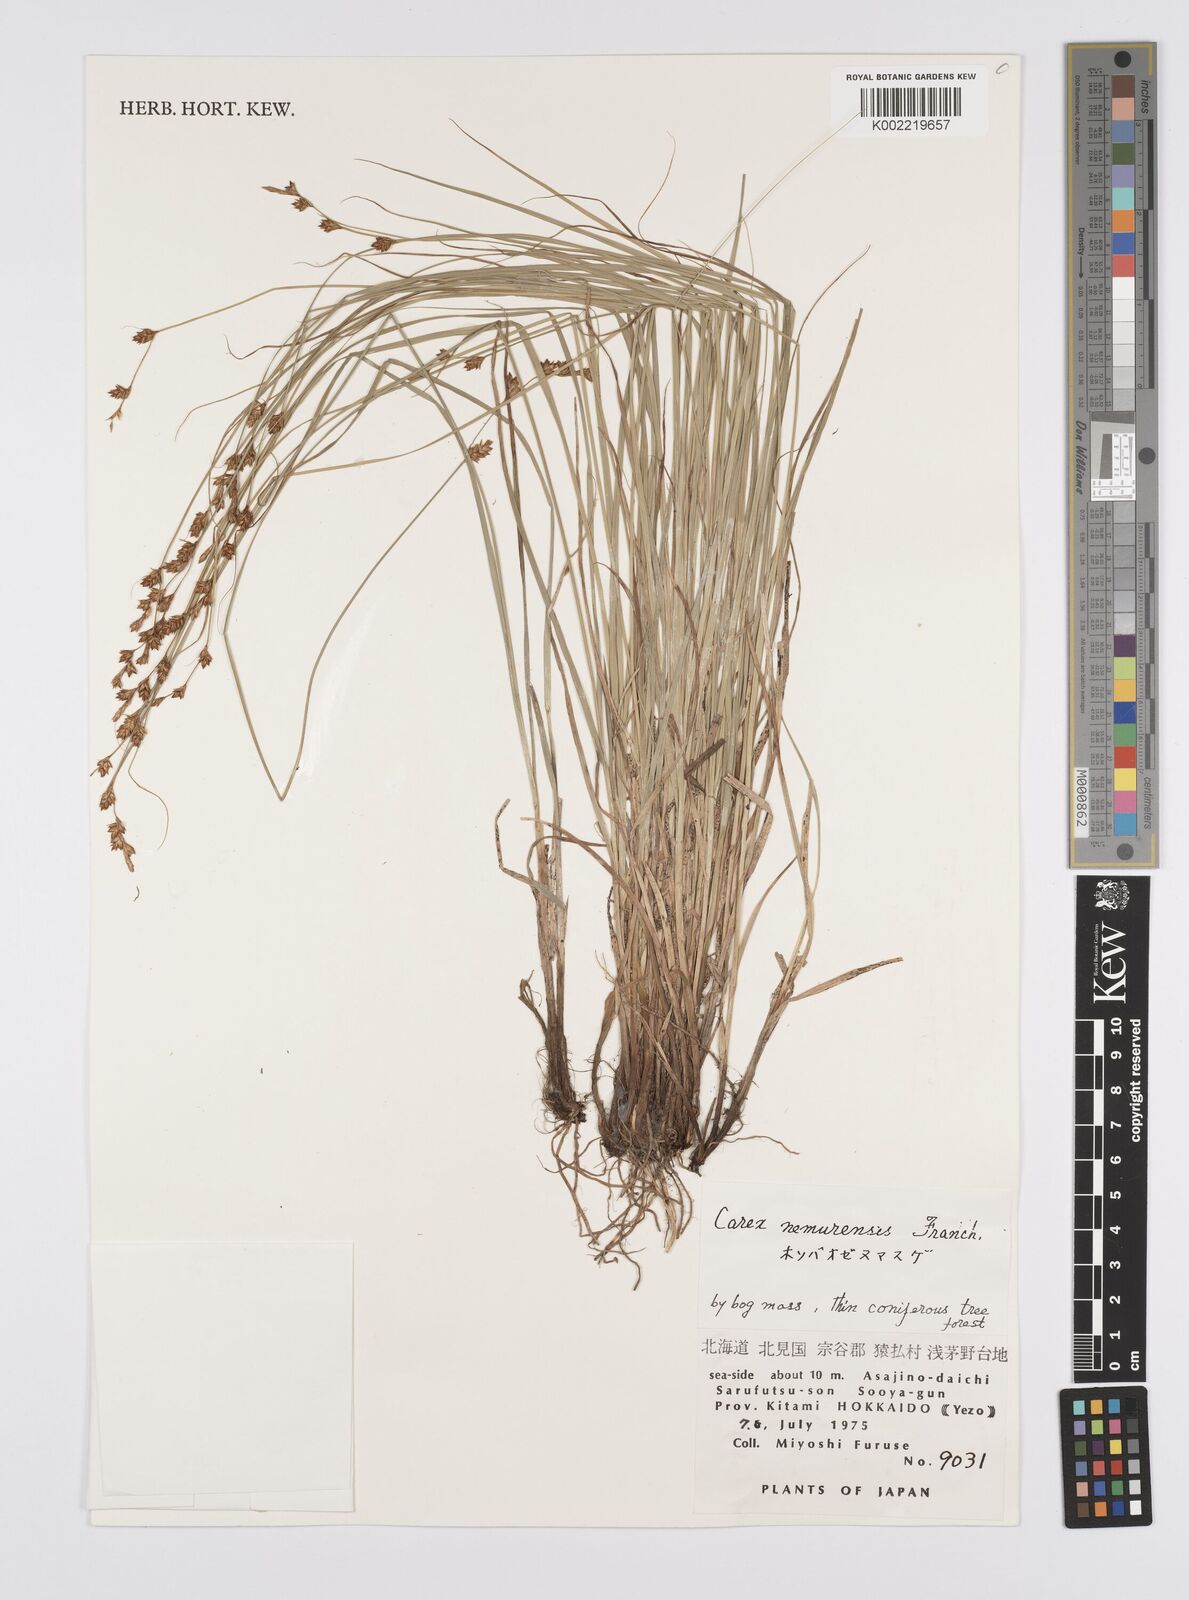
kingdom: Plantae
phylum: Tracheophyta
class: Liliopsida
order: Poales
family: Cyperaceae
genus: Carex
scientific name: Carex traiziscana
